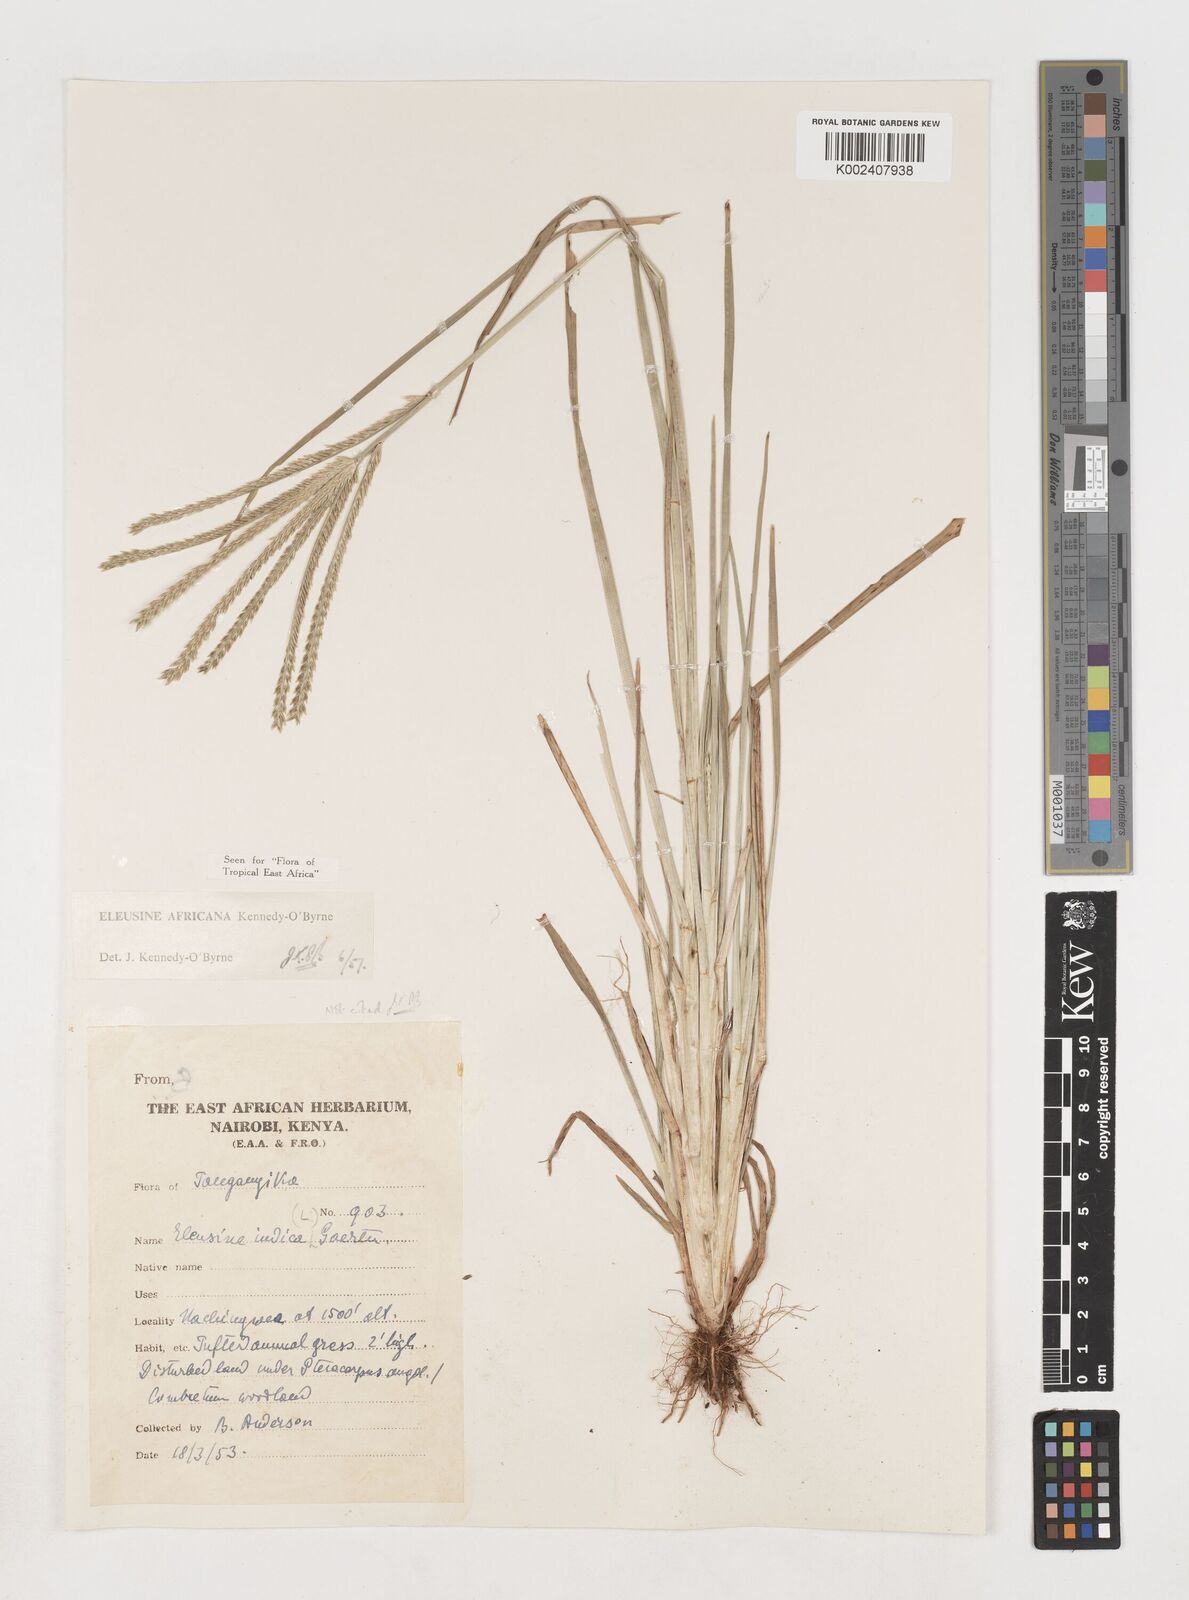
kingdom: Plantae
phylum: Tracheophyta
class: Liliopsida
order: Poales
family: Poaceae
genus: Eleusine
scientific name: Eleusine africana
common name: Wild african finger millet
